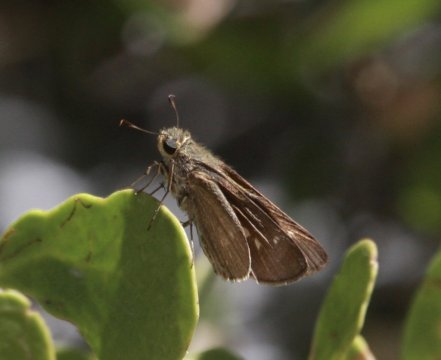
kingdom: Animalia
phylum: Arthropoda
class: Insecta
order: Lepidoptera
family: Hesperiidae
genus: Panoquina
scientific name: Panoquina errans
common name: Wandering Skipper
